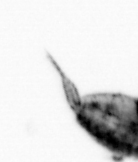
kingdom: Animalia
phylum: Arthropoda
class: Copepoda
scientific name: Copepoda
